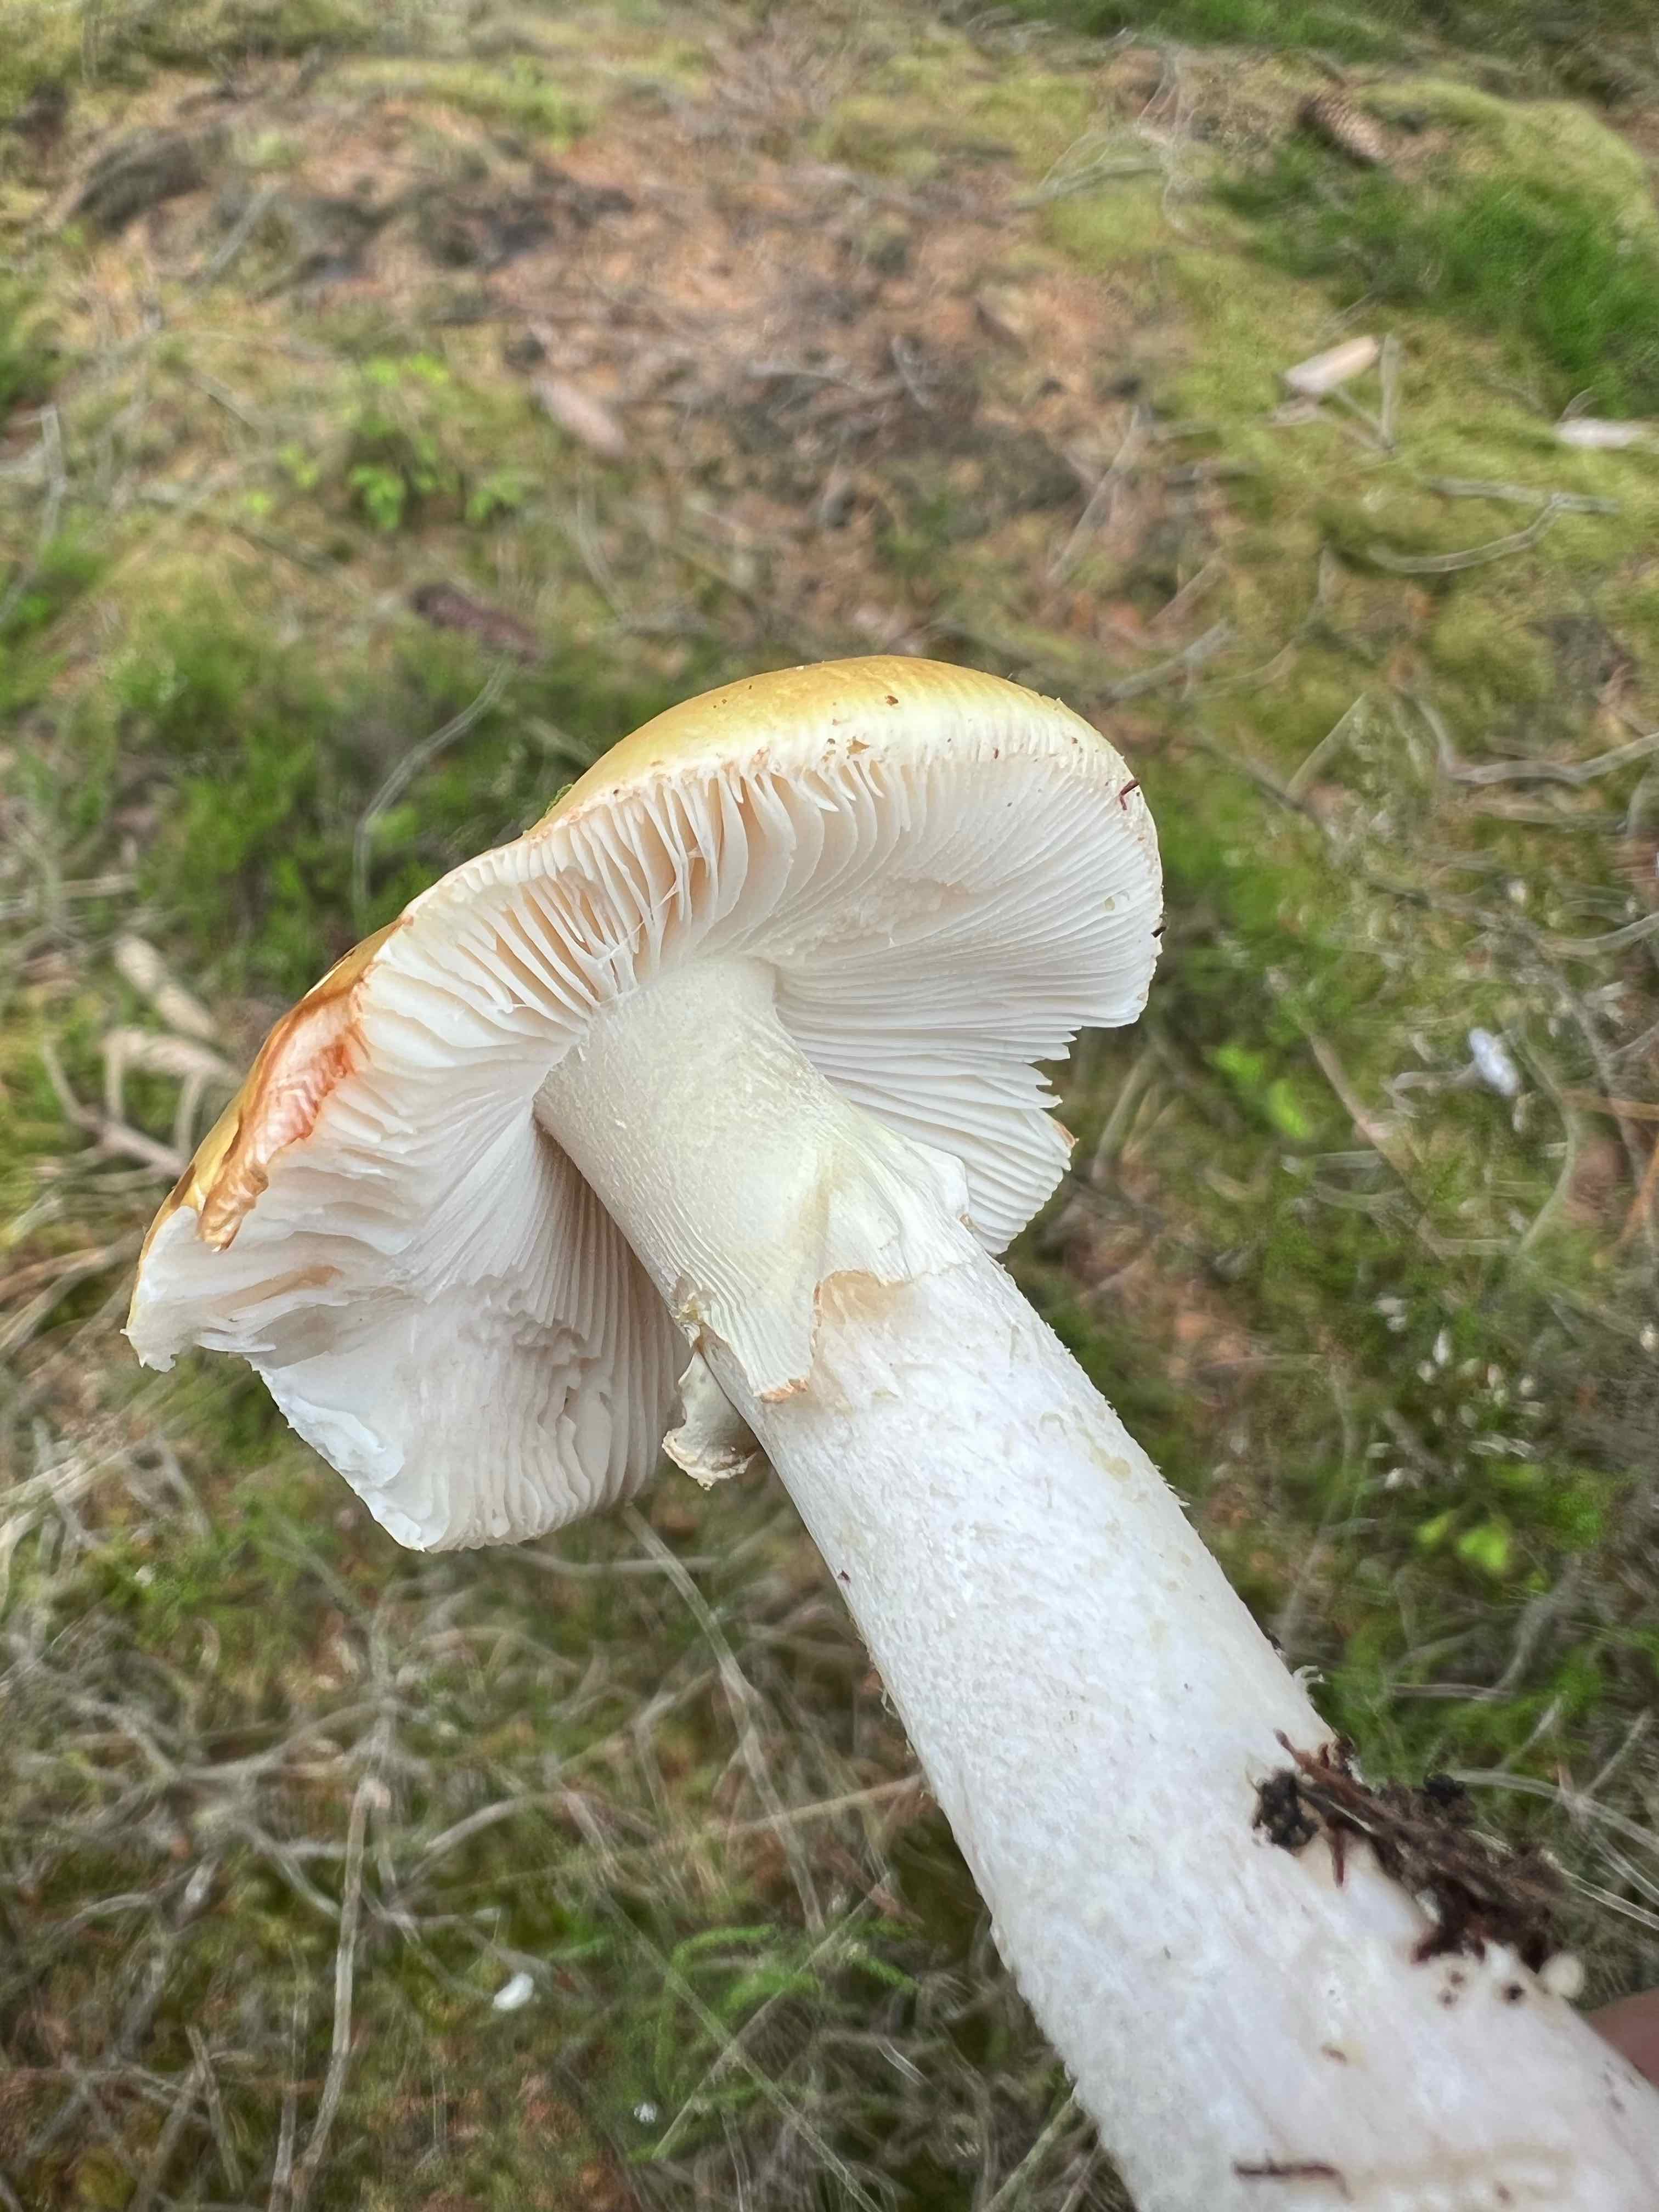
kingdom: Fungi
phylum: Basidiomycota
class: Agaricomycetes
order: Agaricales
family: Amanitaceae
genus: Amanita
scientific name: Amanita rubescens
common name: rødmende fluesvamp
